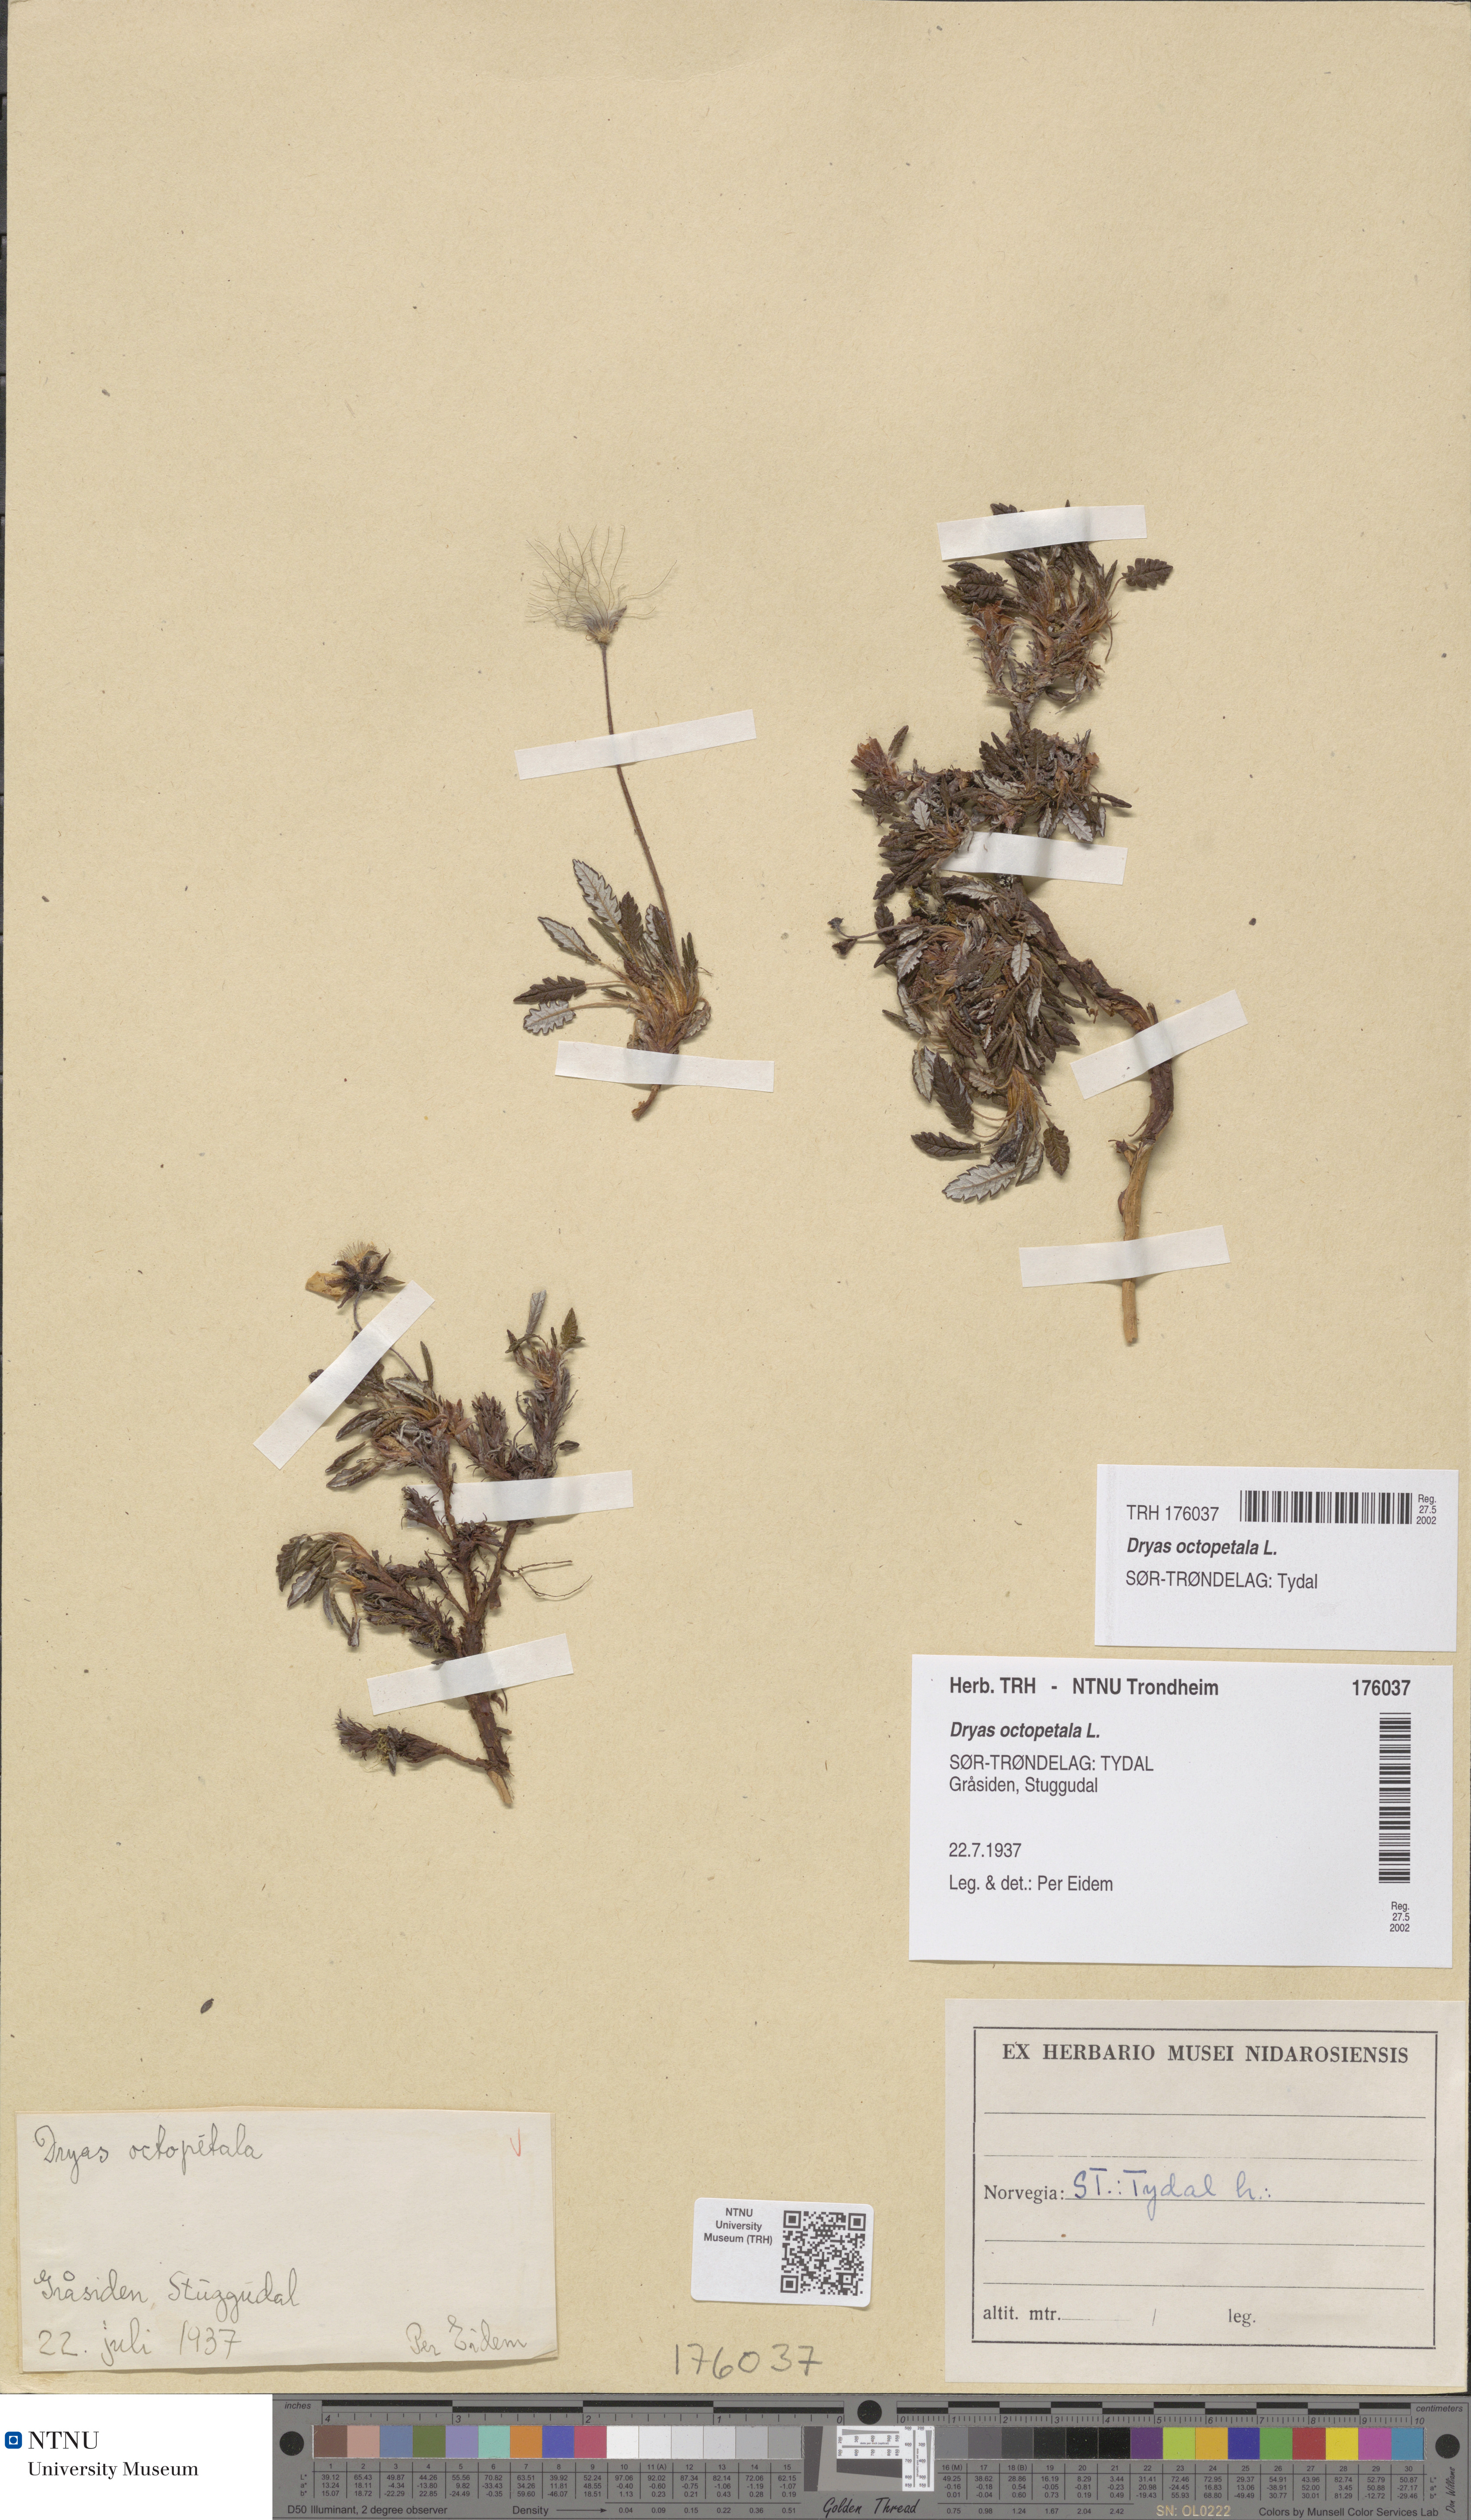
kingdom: Plantae
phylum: Tracheophyta
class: Magnoliopsida
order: Rosales
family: Rosaceae
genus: Dryas
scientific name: Dryas octopetala
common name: Eight-petal mountain-avens
